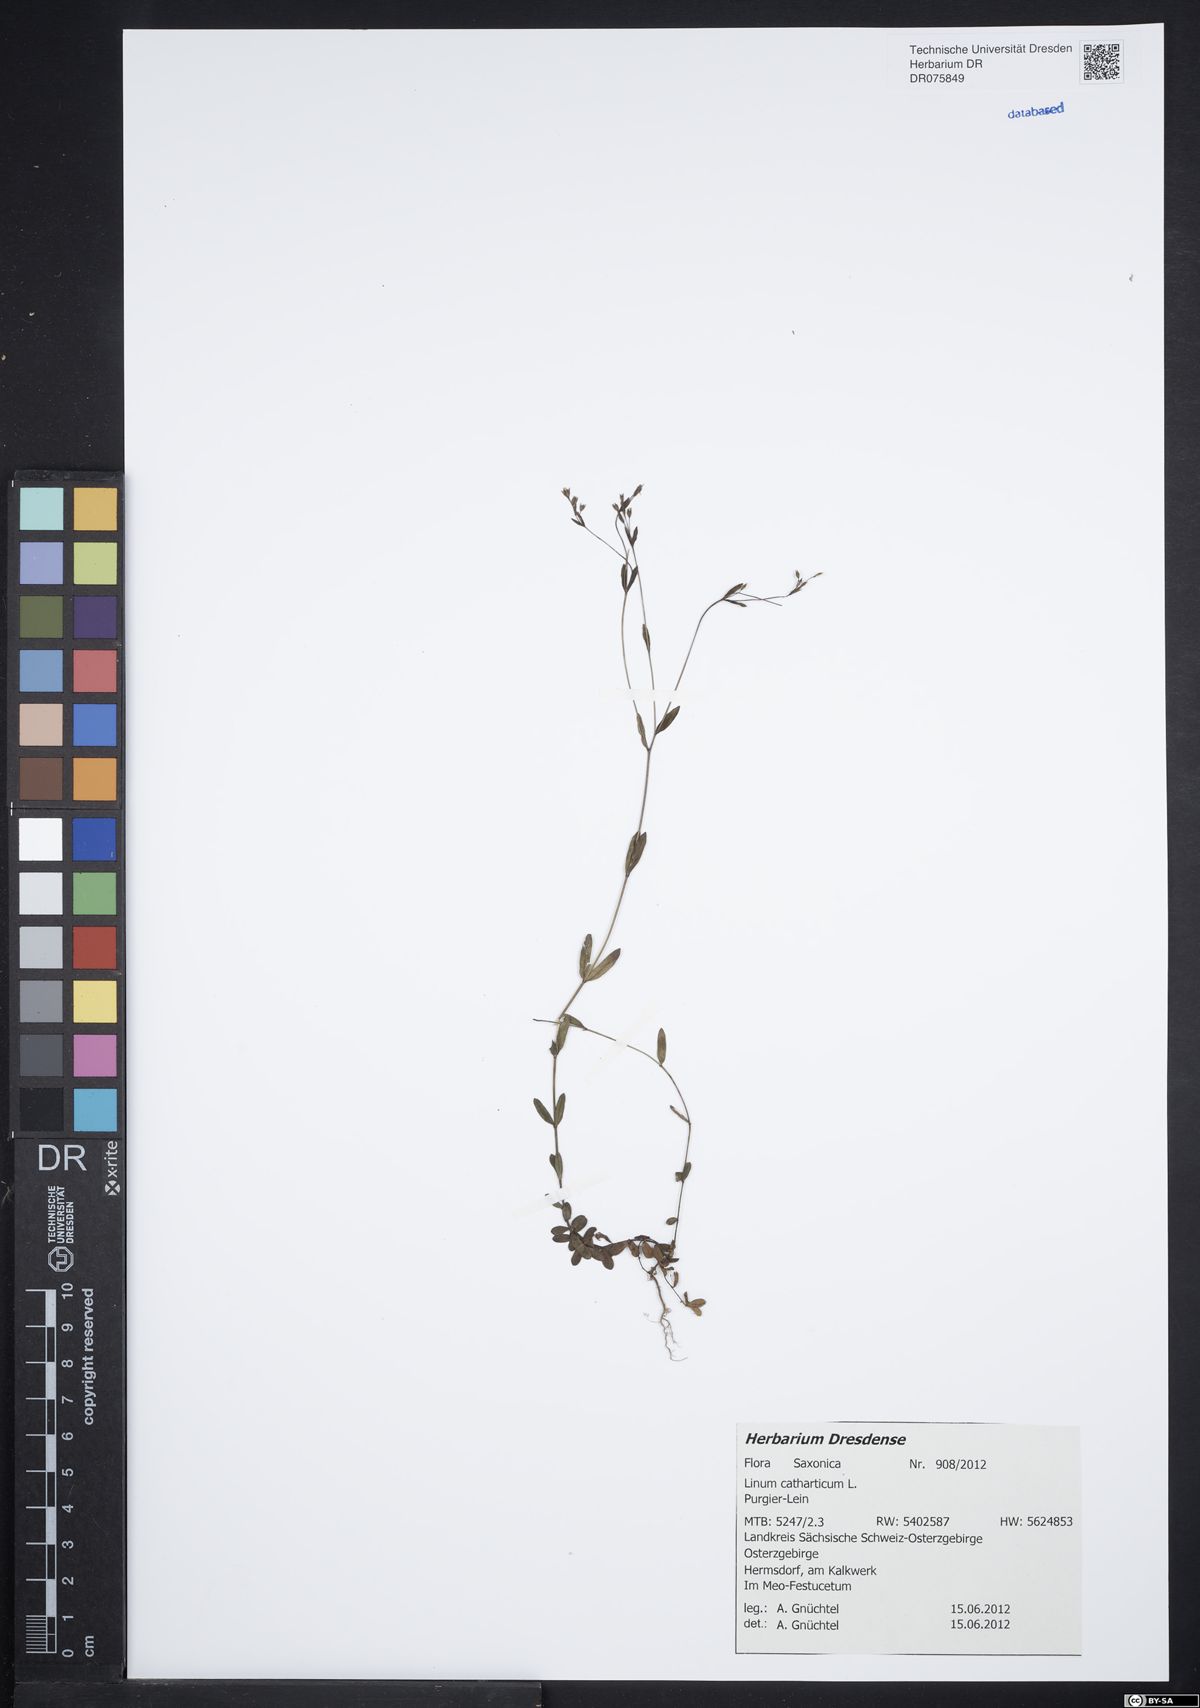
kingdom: Plantae
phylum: Tracheophyta
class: Magnoliopsida
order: Malpighiales
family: Linaceae
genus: Linum
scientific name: Linum catharticum
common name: Fairy flax
